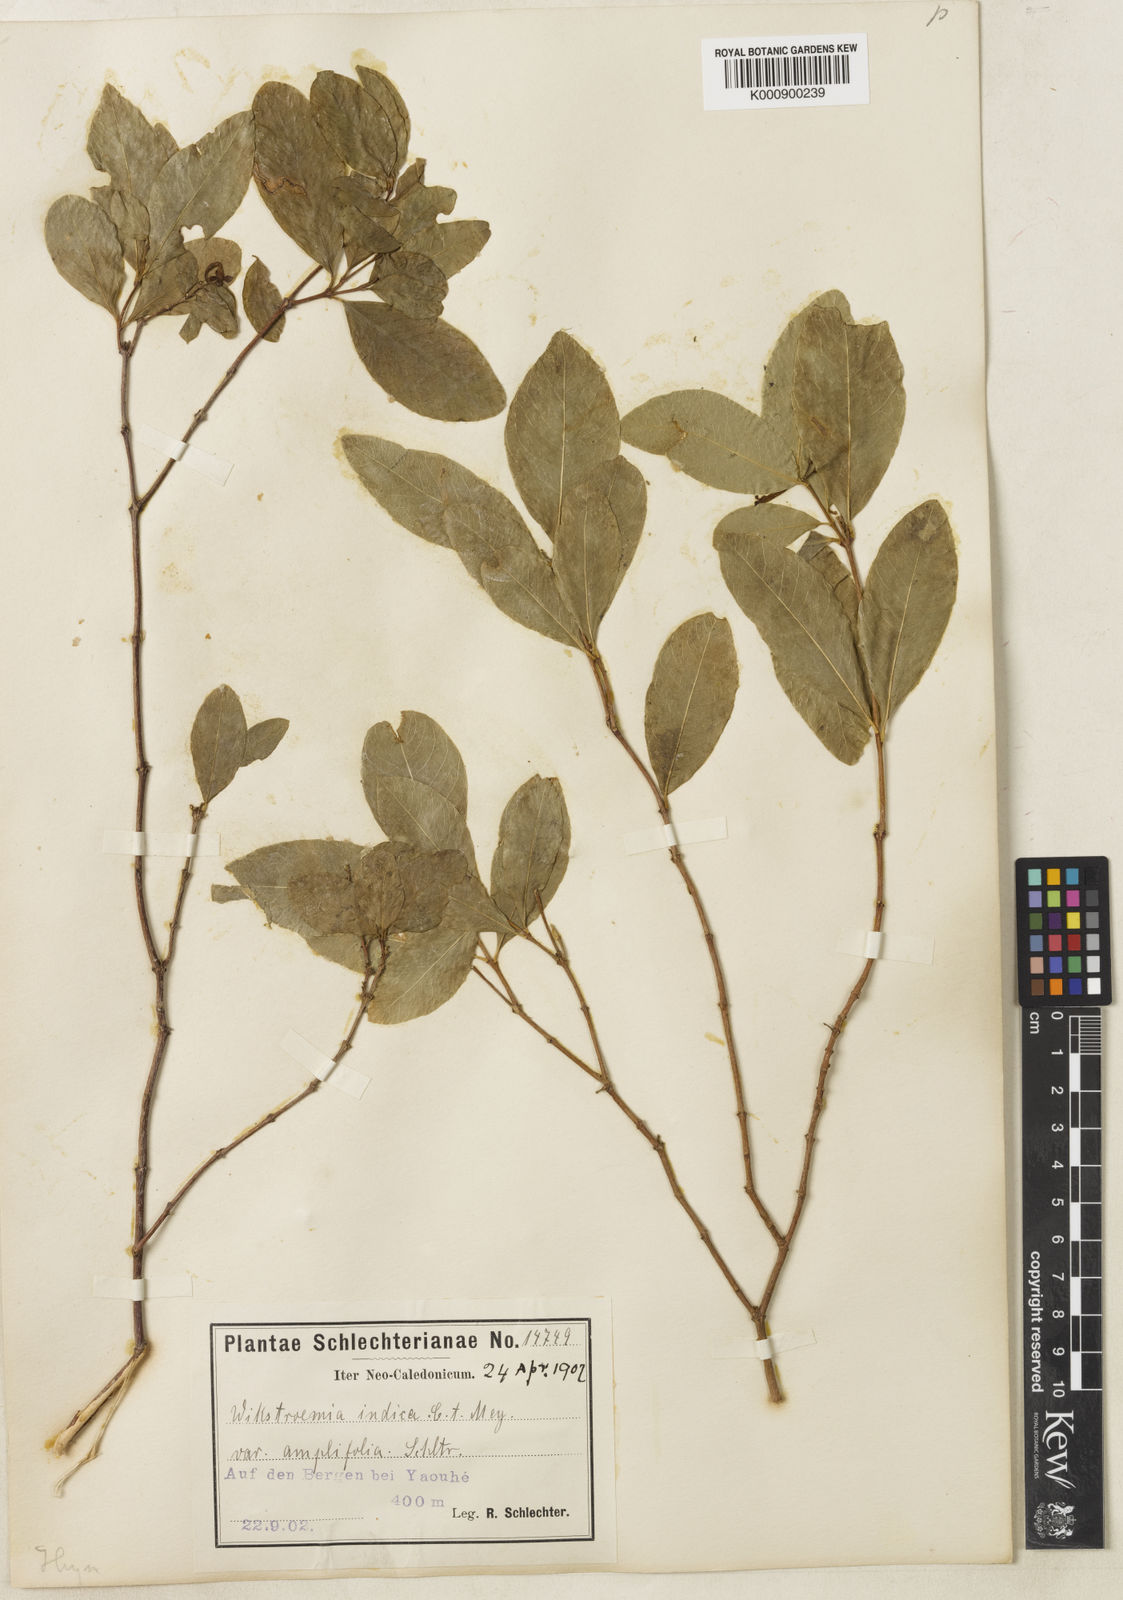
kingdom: Plantae
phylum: Tracheophyta
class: Magnoliopsida
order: Malvales
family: Thymelaeaceae
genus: Wikstroemia
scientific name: Wikstroemia indica
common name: Tiebush
